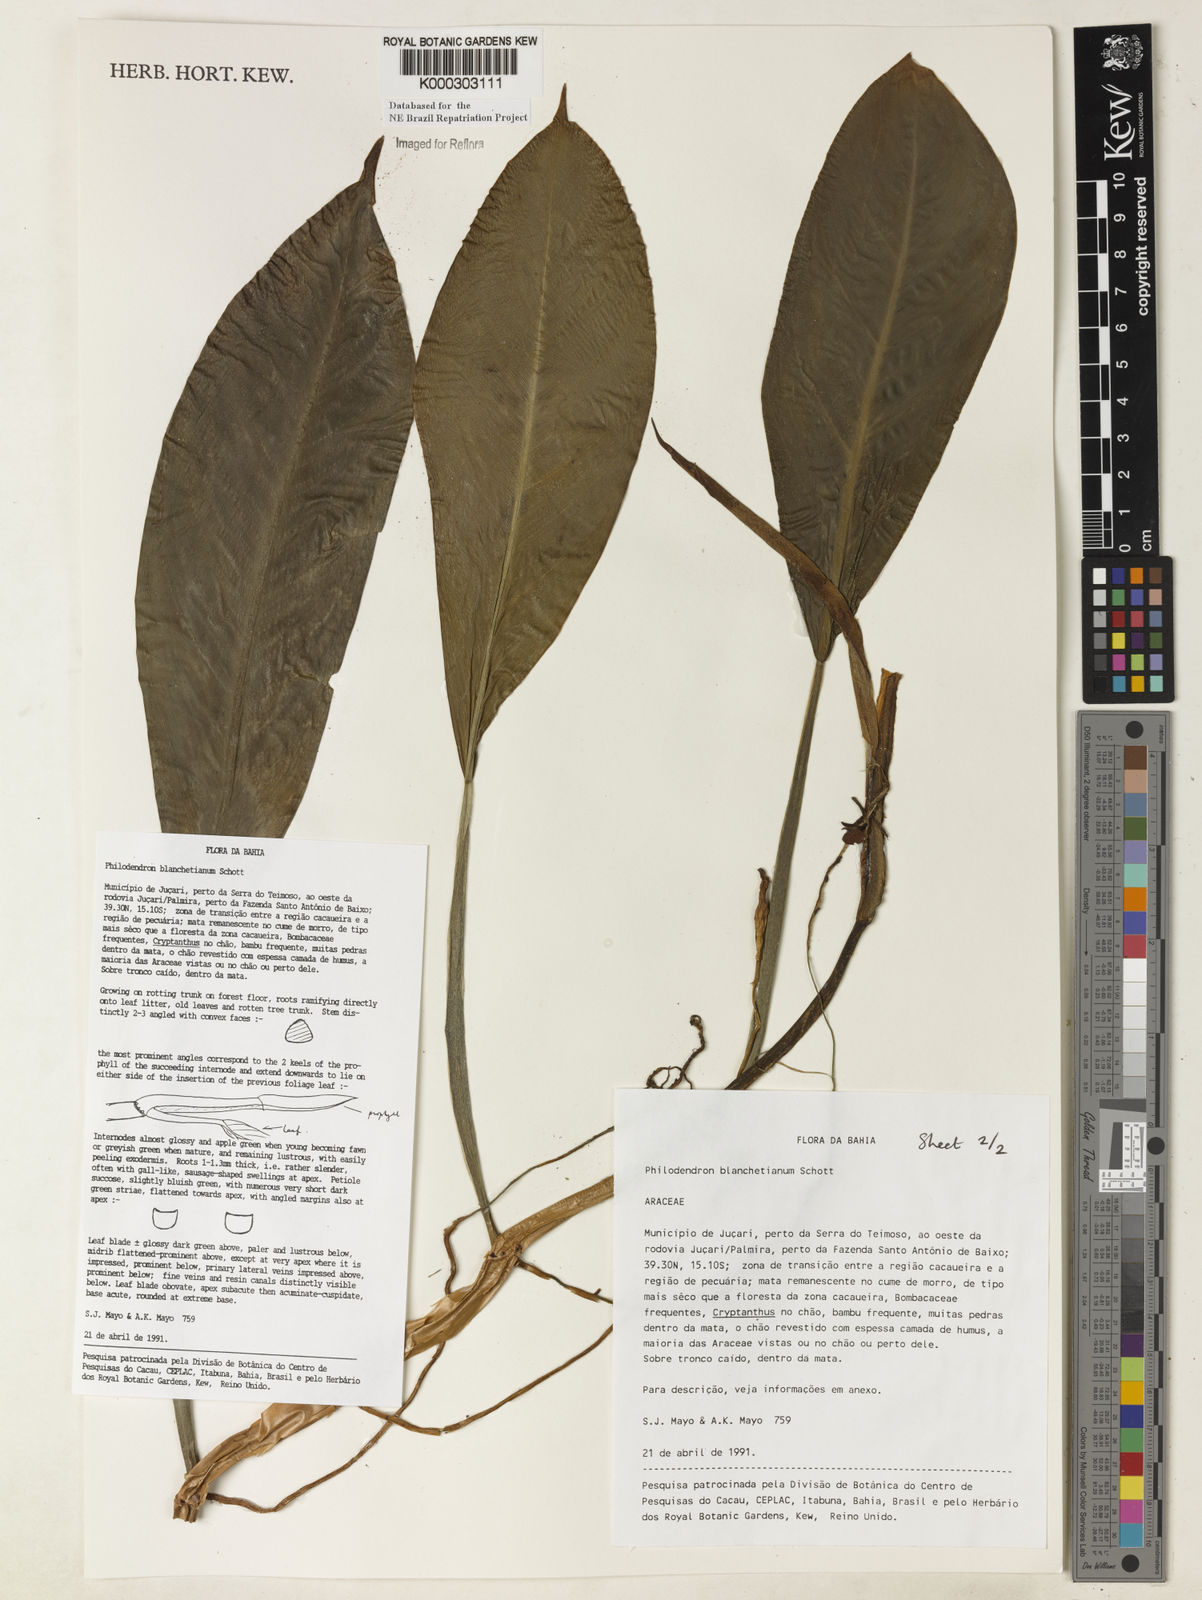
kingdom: Plantae
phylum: Tracheophyta
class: Liliopsida
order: Alismatales
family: Araceae
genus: Philodendron
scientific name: Philodendron blanchetianum
